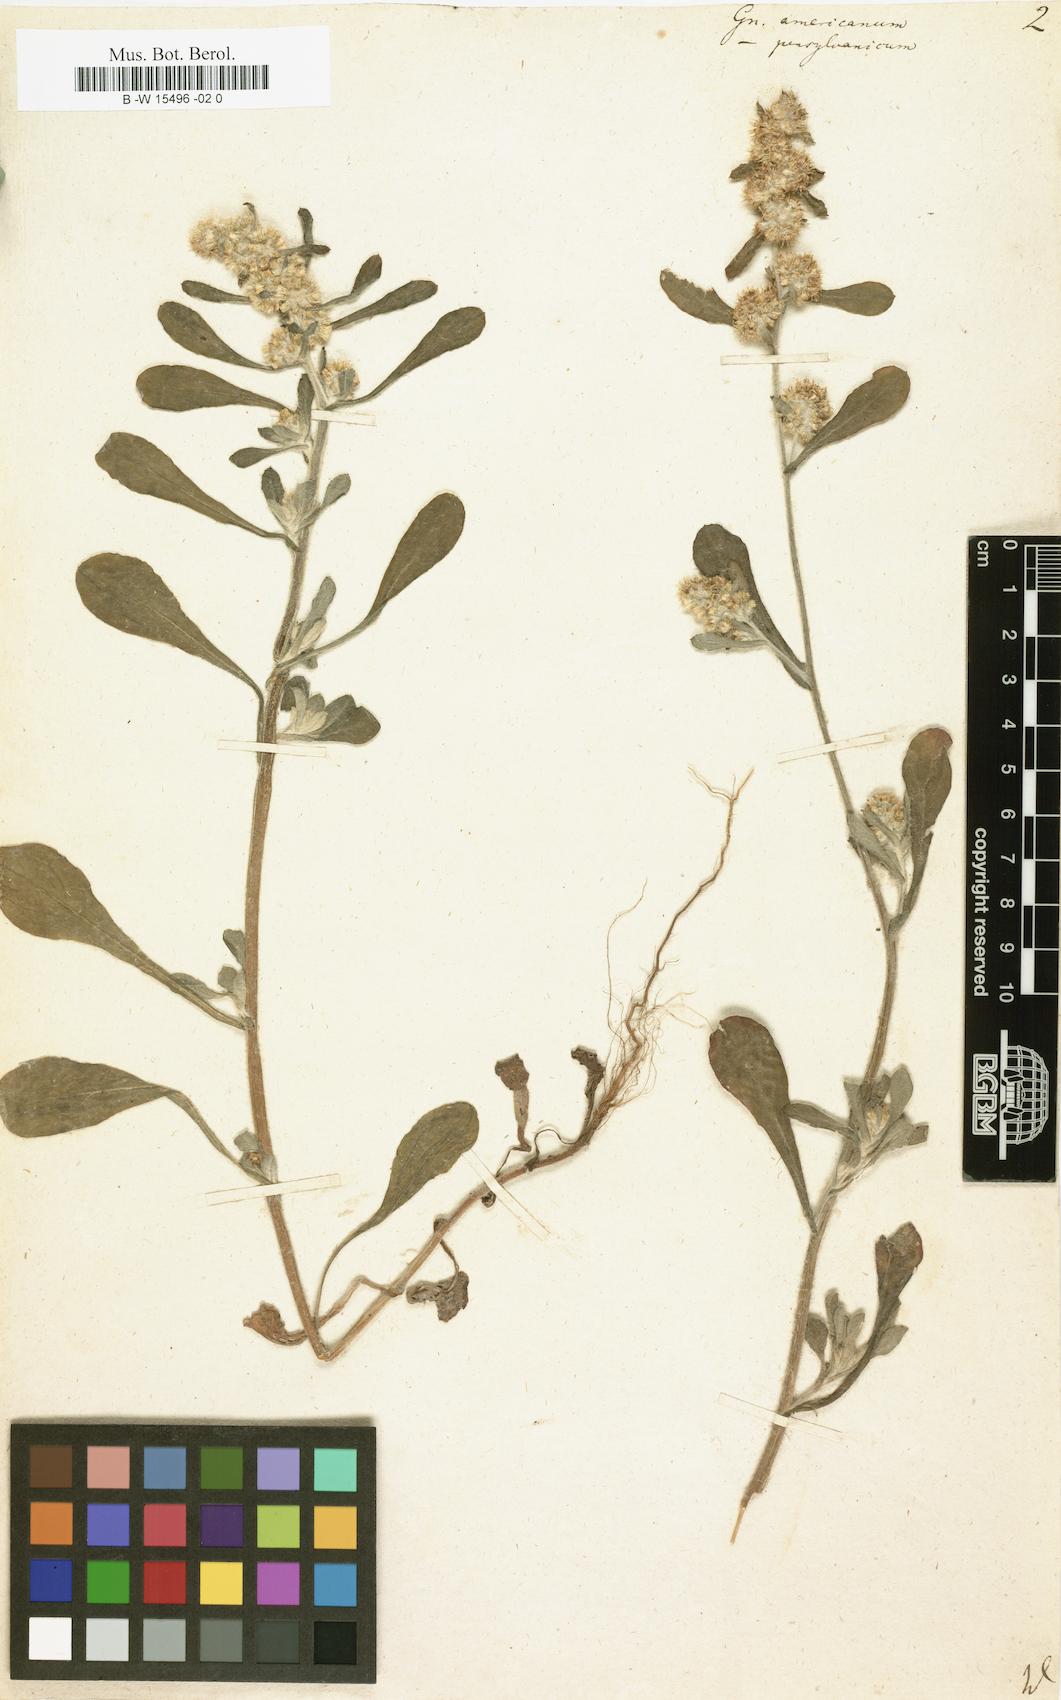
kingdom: Plantae
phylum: Tracheophyta
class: Magnoliopsida
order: Asterales
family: Asteraceae
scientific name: Asteraceae
